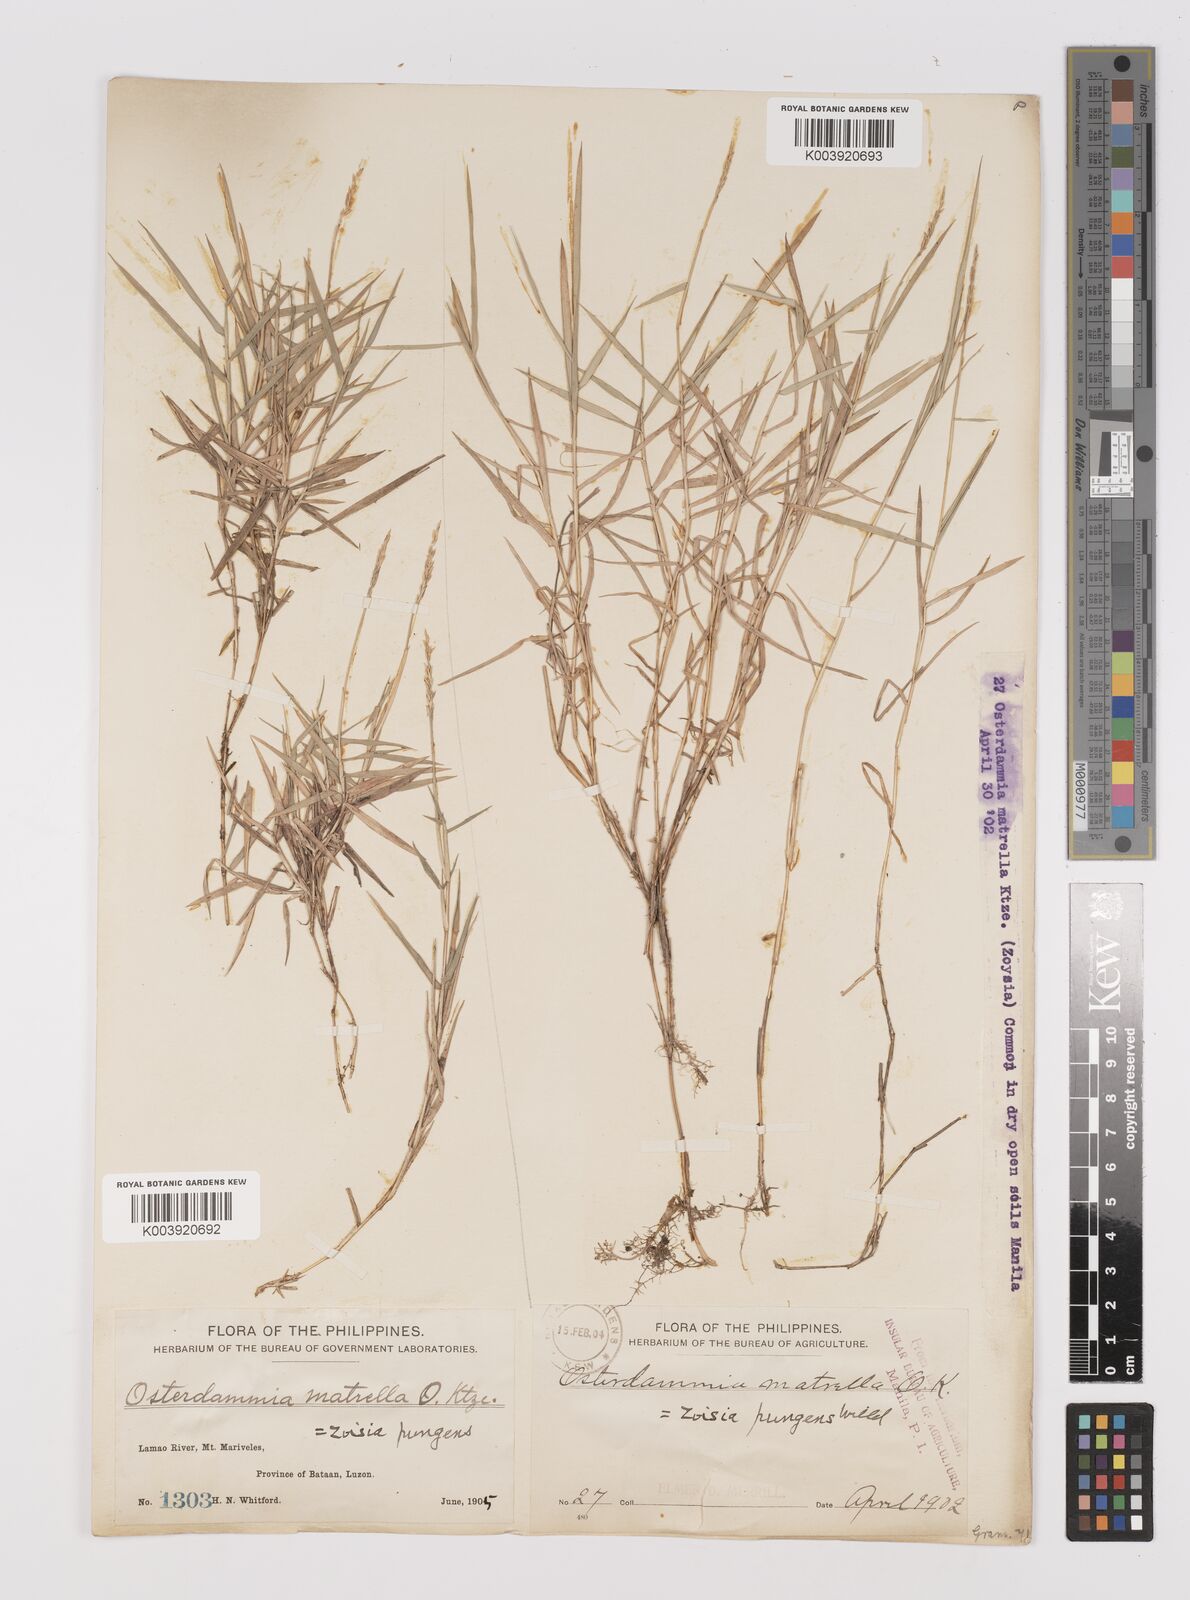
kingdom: Plantae
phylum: Tracheophyta
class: Liliopsida
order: Poales
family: Poaceae
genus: Zoysia
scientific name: Zoysia matrella
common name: Manila grass
